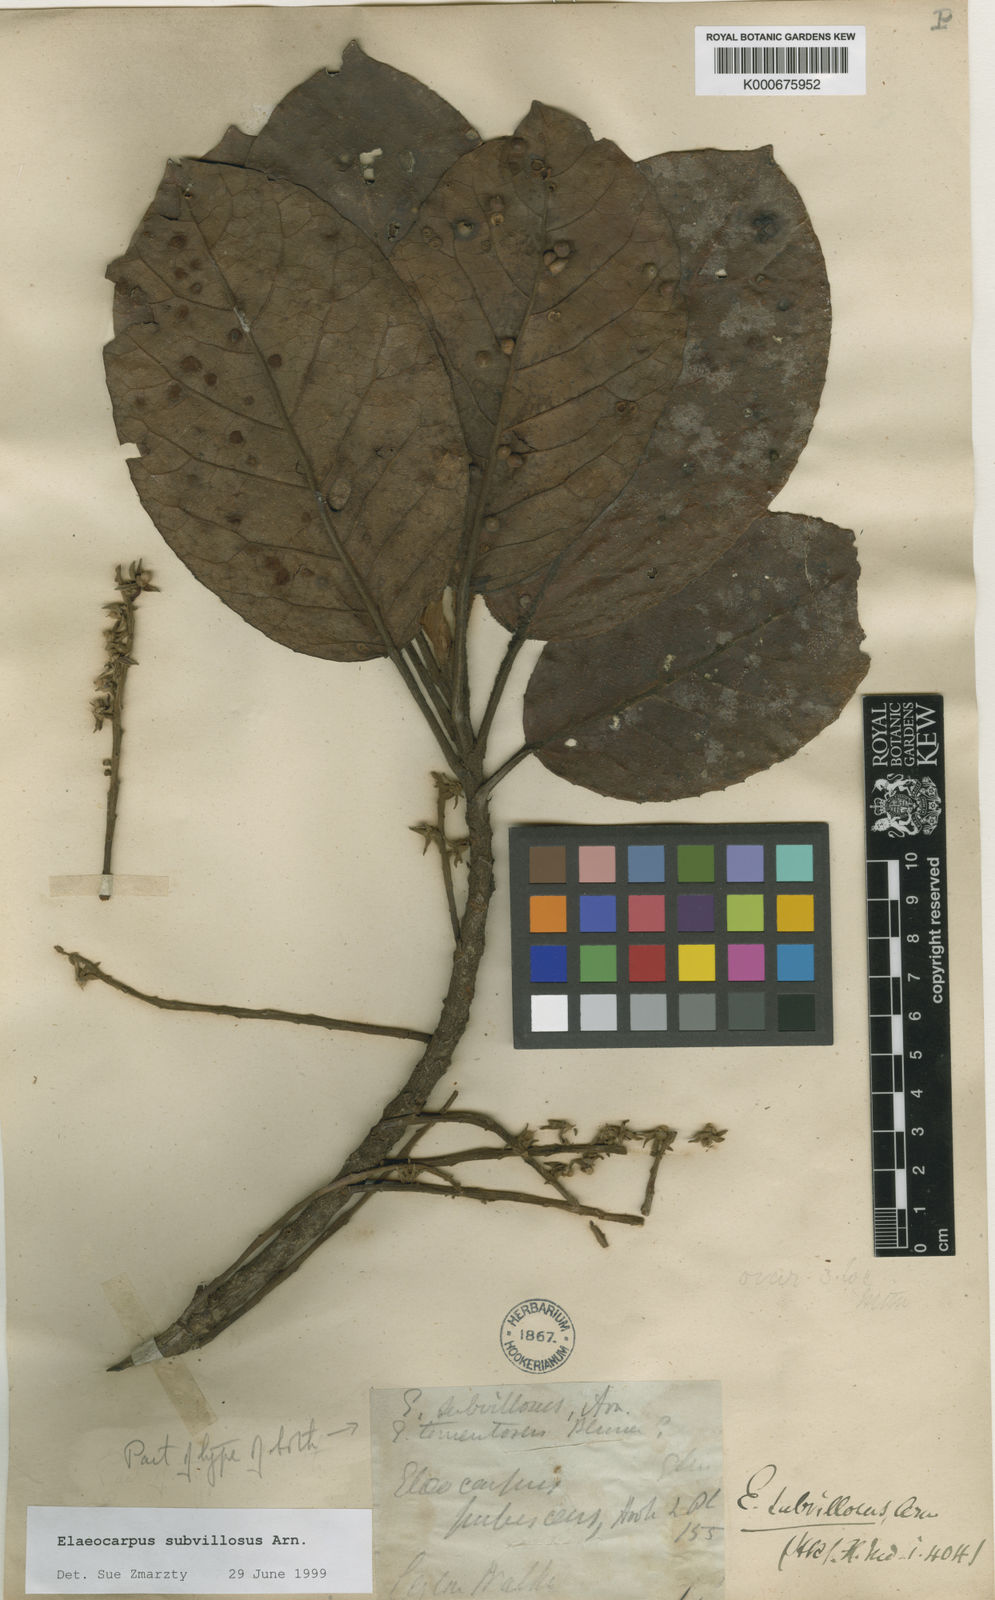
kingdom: Plantae
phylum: Tracheophyta
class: Magnoliopsida
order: Oxalidales
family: Elaeocarpaceae
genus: Elaeocarpus
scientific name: Elaeocarpus subvillosus
